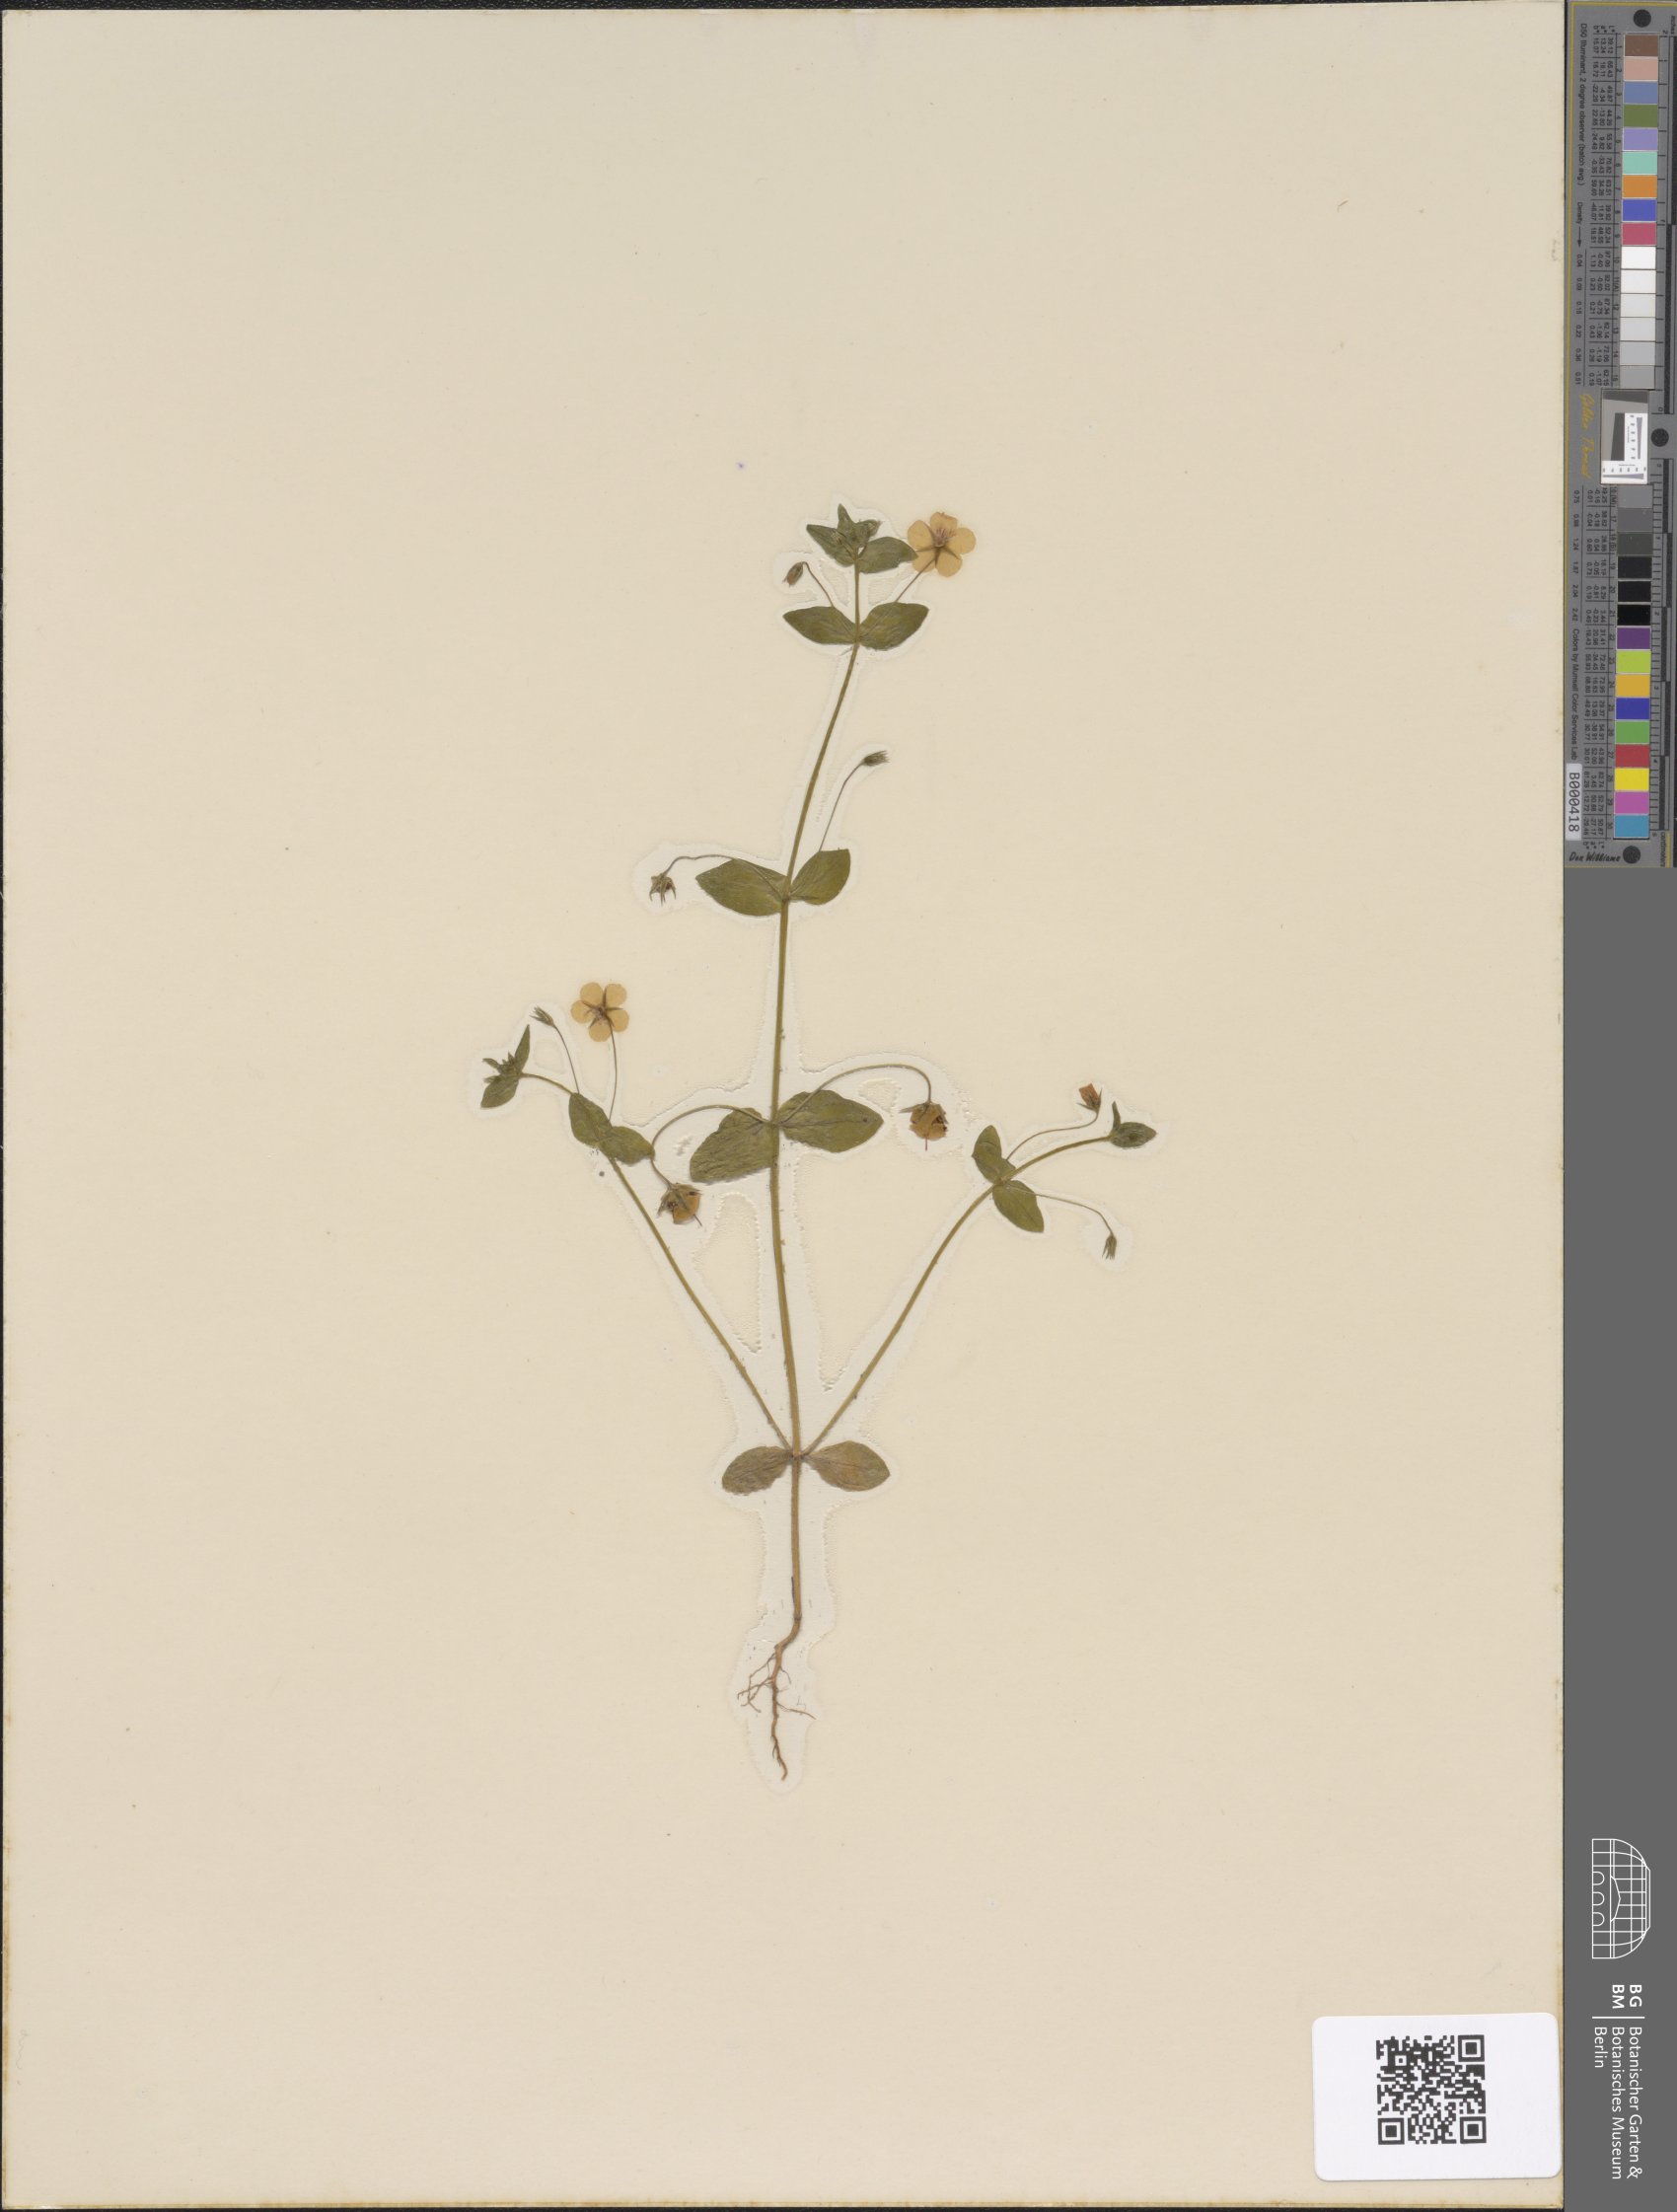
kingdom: Plantae
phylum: Tracheophyta
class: Magnoliopsida
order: Ericales
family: Primulaceae
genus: Lysimachia
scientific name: Lysimachia arvensis
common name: Scarlet pimpernel
